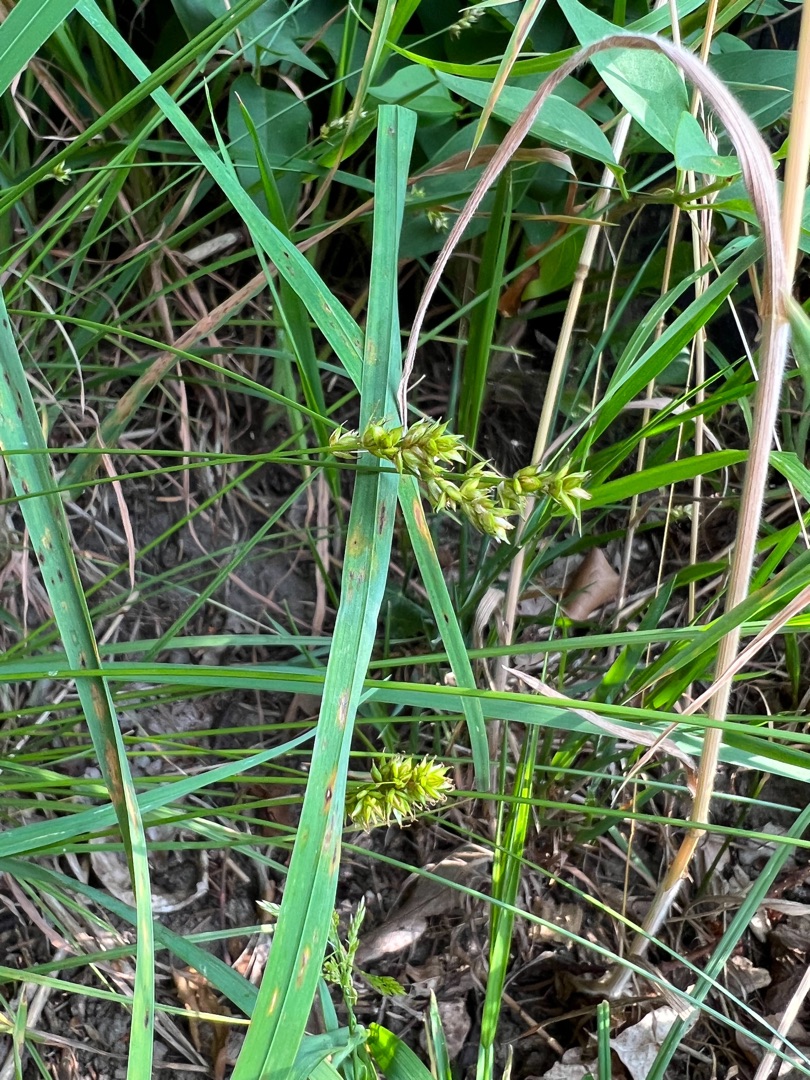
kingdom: Plantae
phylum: Tracheophyta
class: Liliopsida
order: Poales
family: Cyperaceae
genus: Carex
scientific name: Carex pairae
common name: Pigget star
